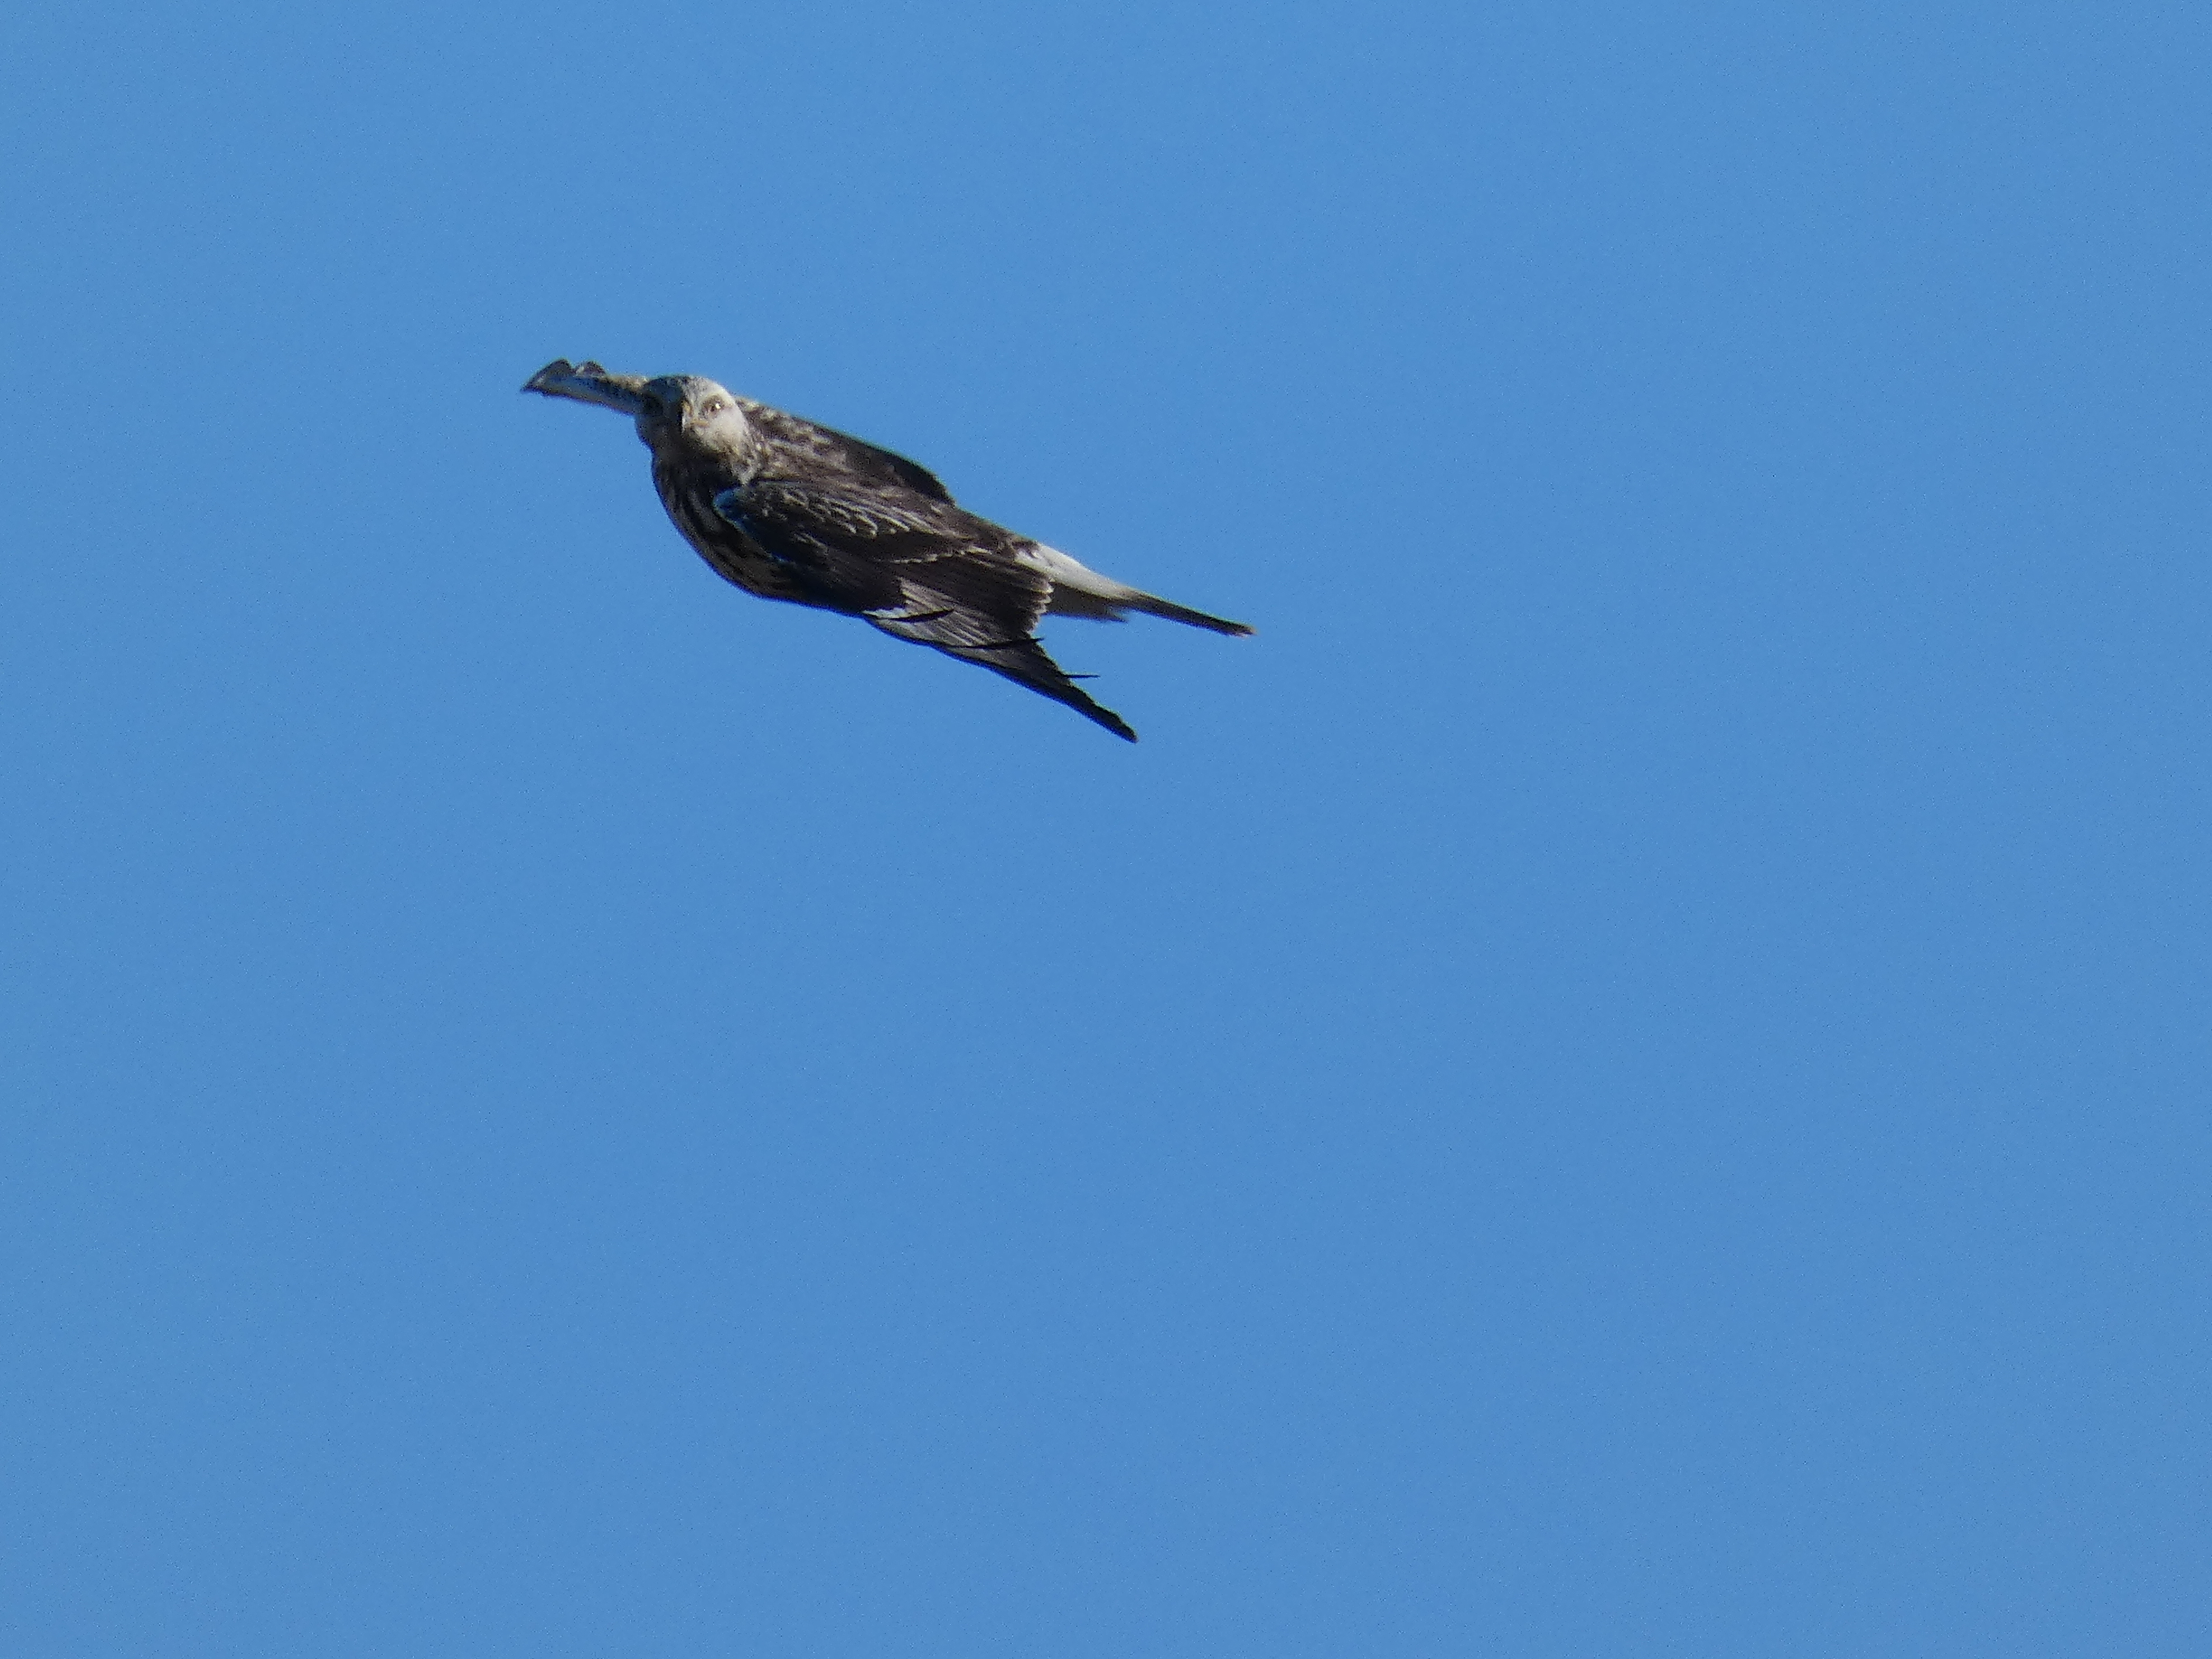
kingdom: Animalia
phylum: Chordata
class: Aves
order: Accipitriformes
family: Accipitridae
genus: Buteo
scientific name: Buteo lagopus
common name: Fjeldvåge
